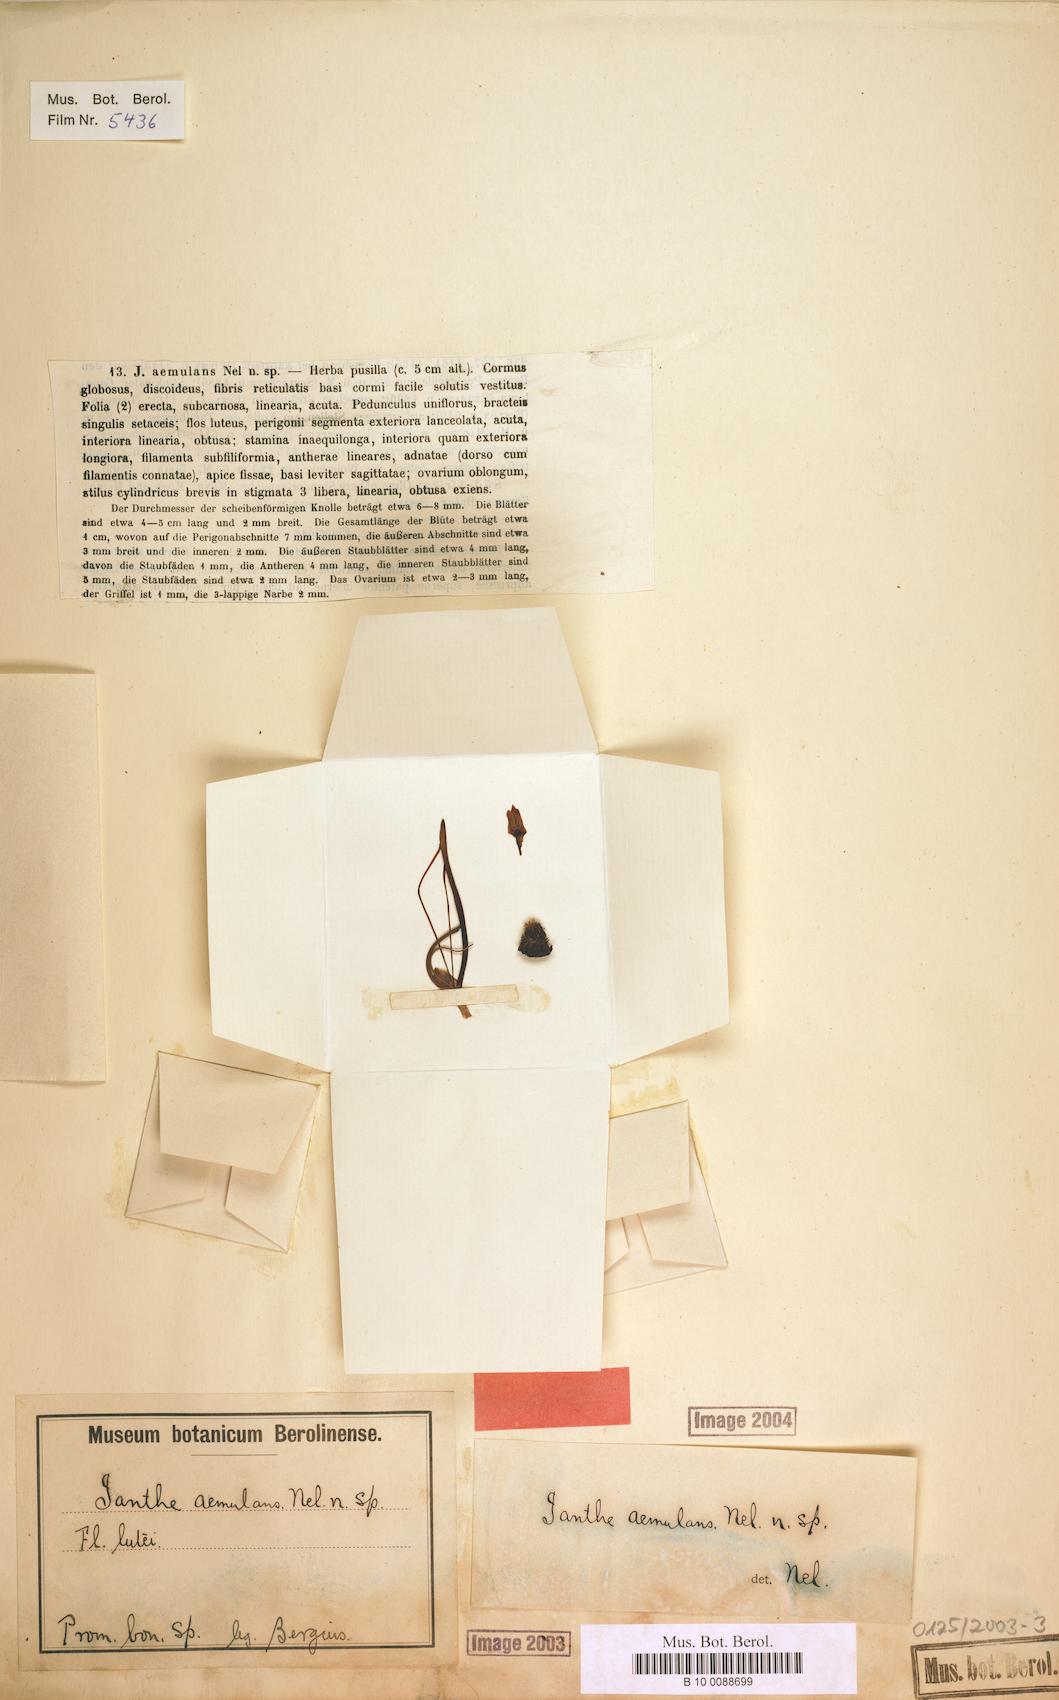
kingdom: Plantae
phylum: Tracheophyta
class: Liliopsida
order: Asparagales
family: Hypoxidaceae
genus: Pauridia
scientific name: Pauridia aemulans
